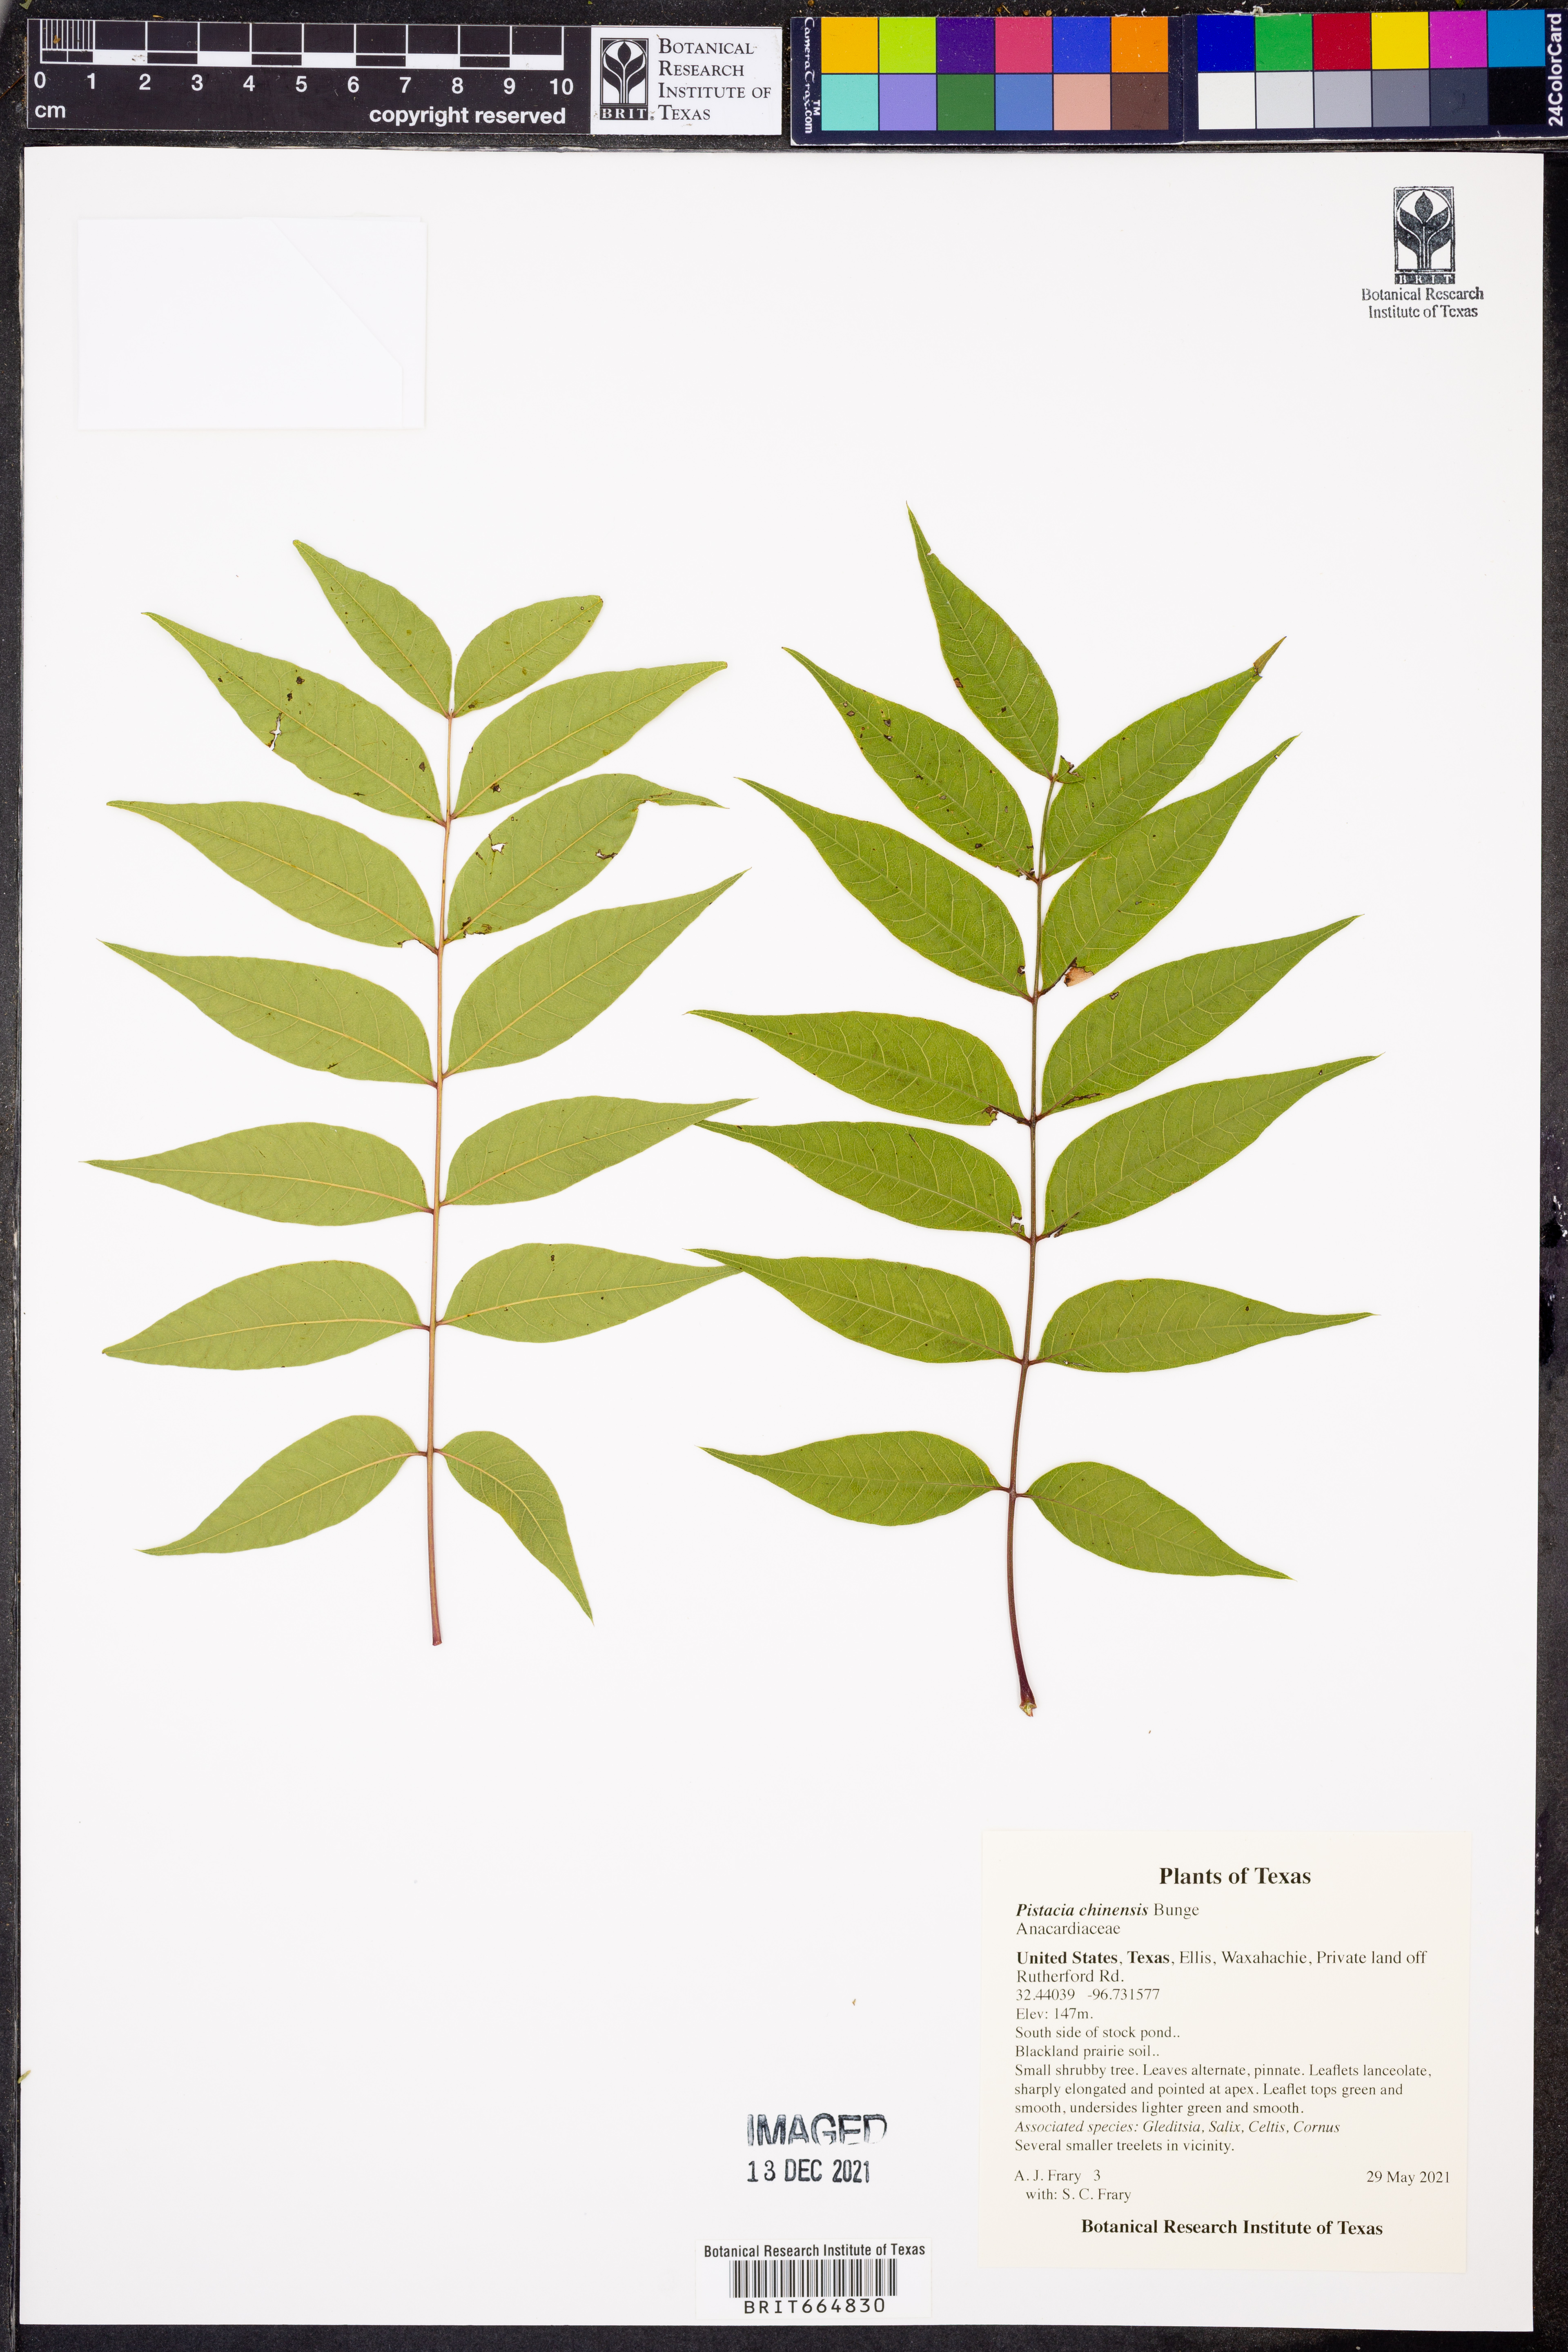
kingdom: Plantae
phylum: Tracheophyta
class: Magnoliopsida
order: Sapindales
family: Anacardiaceae
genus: Pistacia
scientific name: Pistacia chinensis
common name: Chinese pistache
